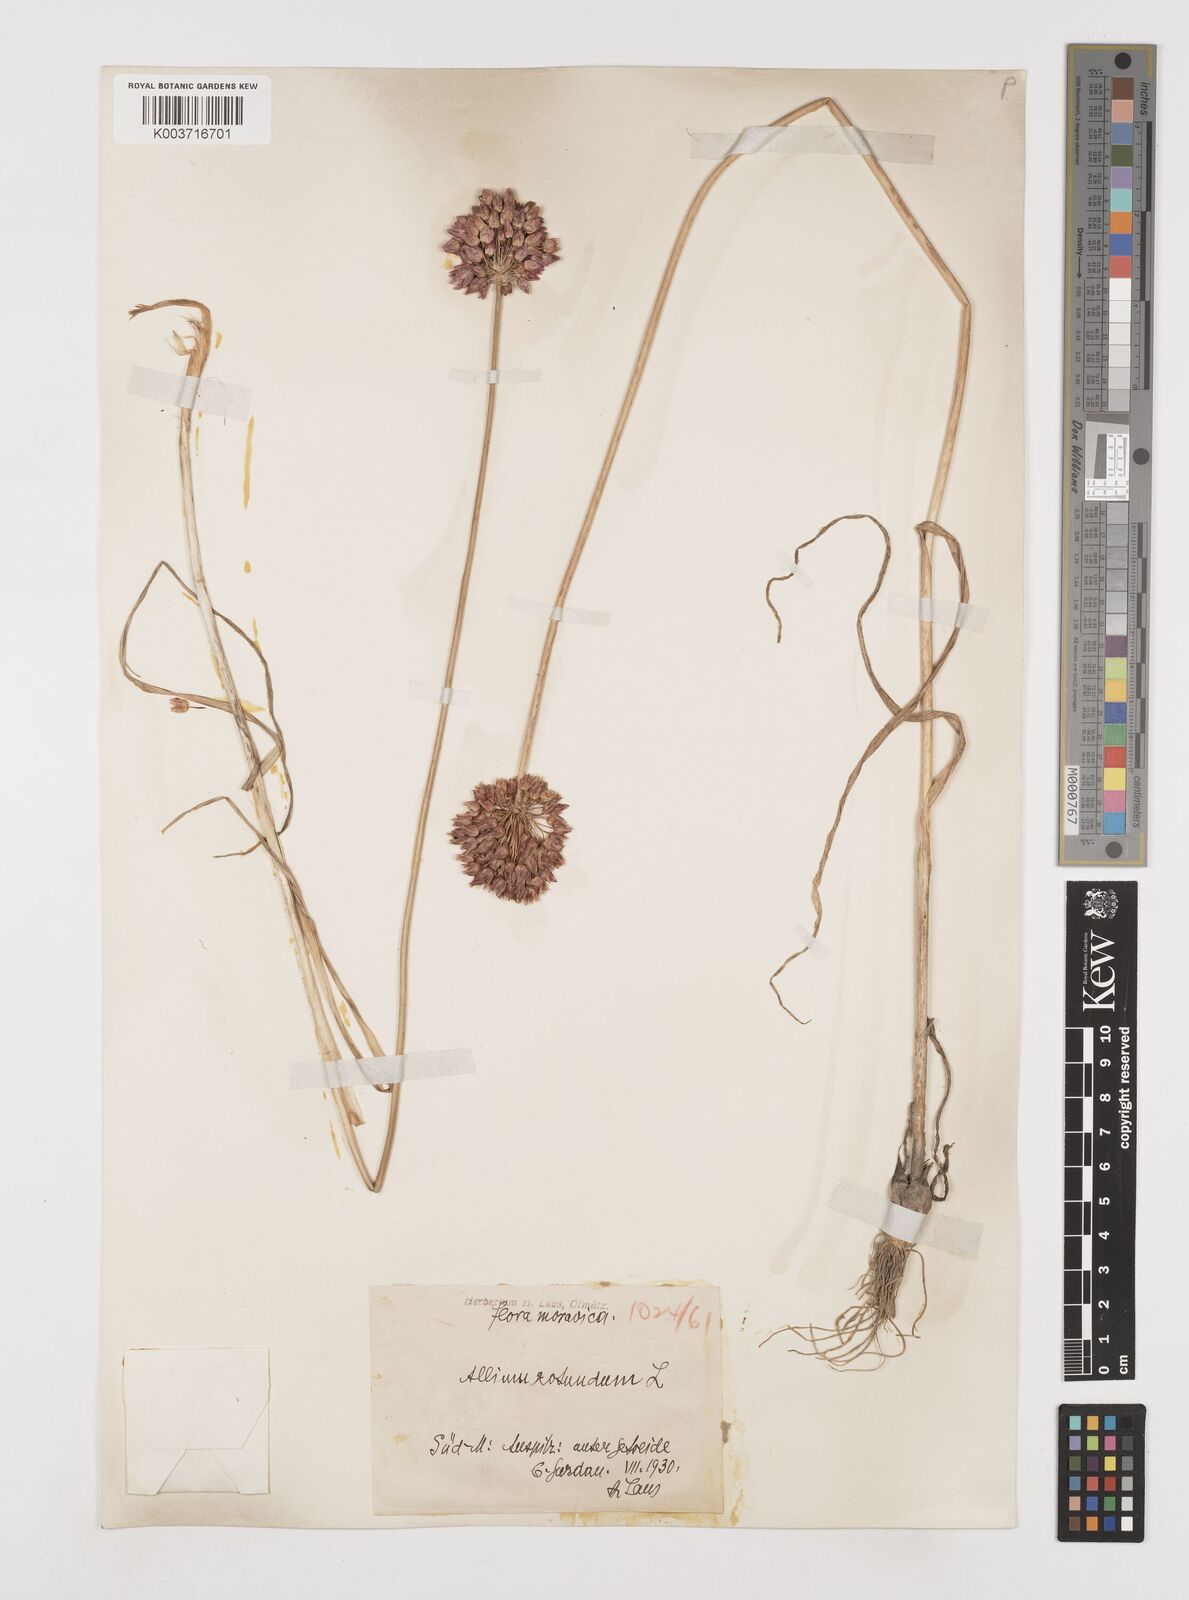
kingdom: Plantae
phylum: Tracheophyta
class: Liliopsida
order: Asparagales
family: Amaryllidaceae
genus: Allium
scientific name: Allium rotundum
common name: Sand leek
